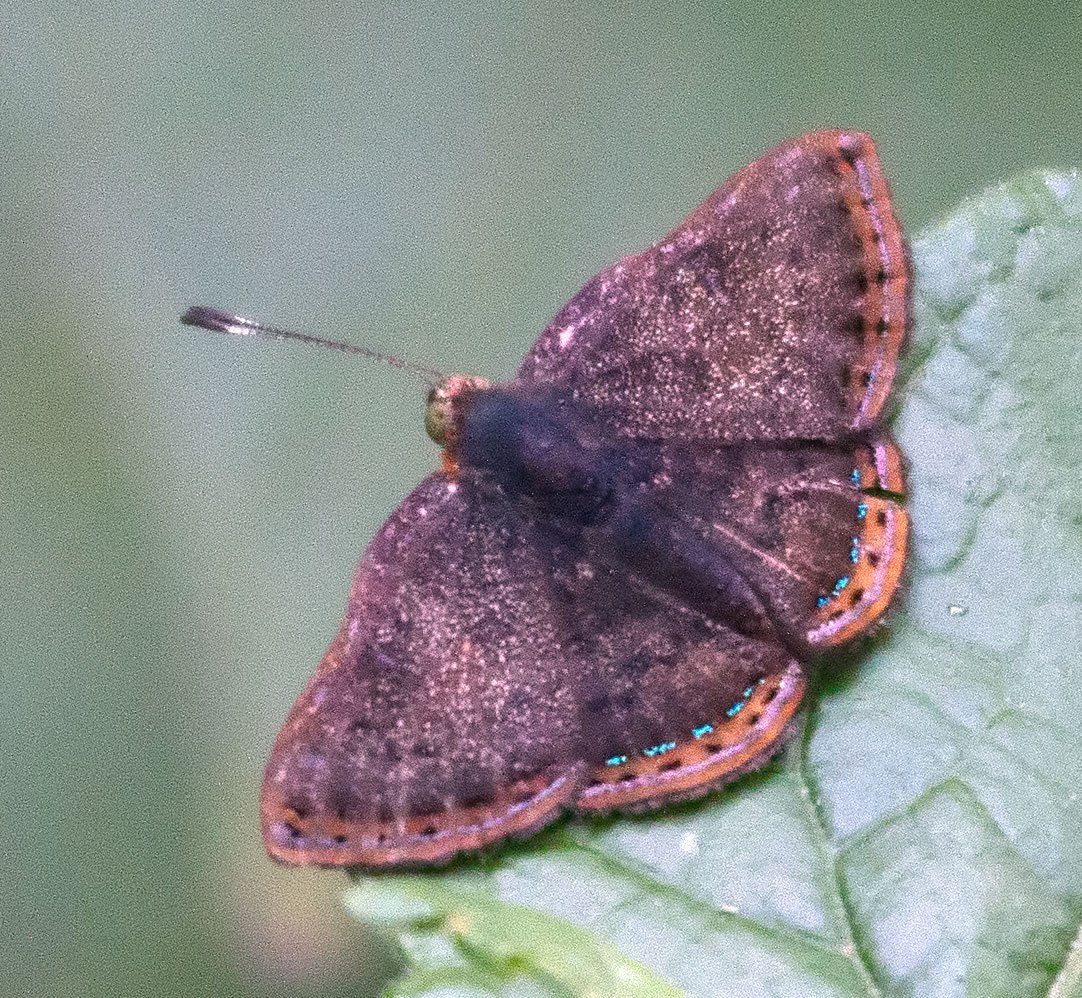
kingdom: Animalia
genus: Caria
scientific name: Caria ino
